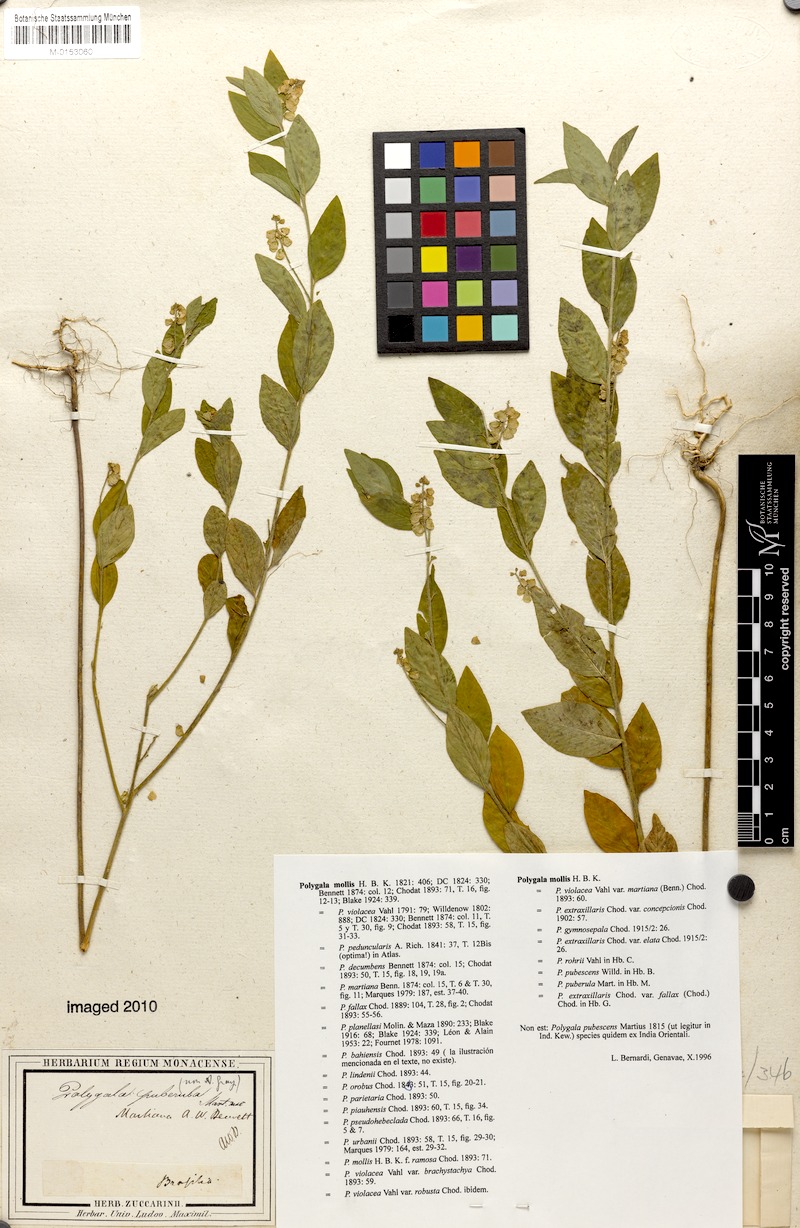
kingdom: Plantae
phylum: Tracheophyta
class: Magnoliopsida
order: Fabales
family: Polygalaceae
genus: Asemeia
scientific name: Asemeia martiana
